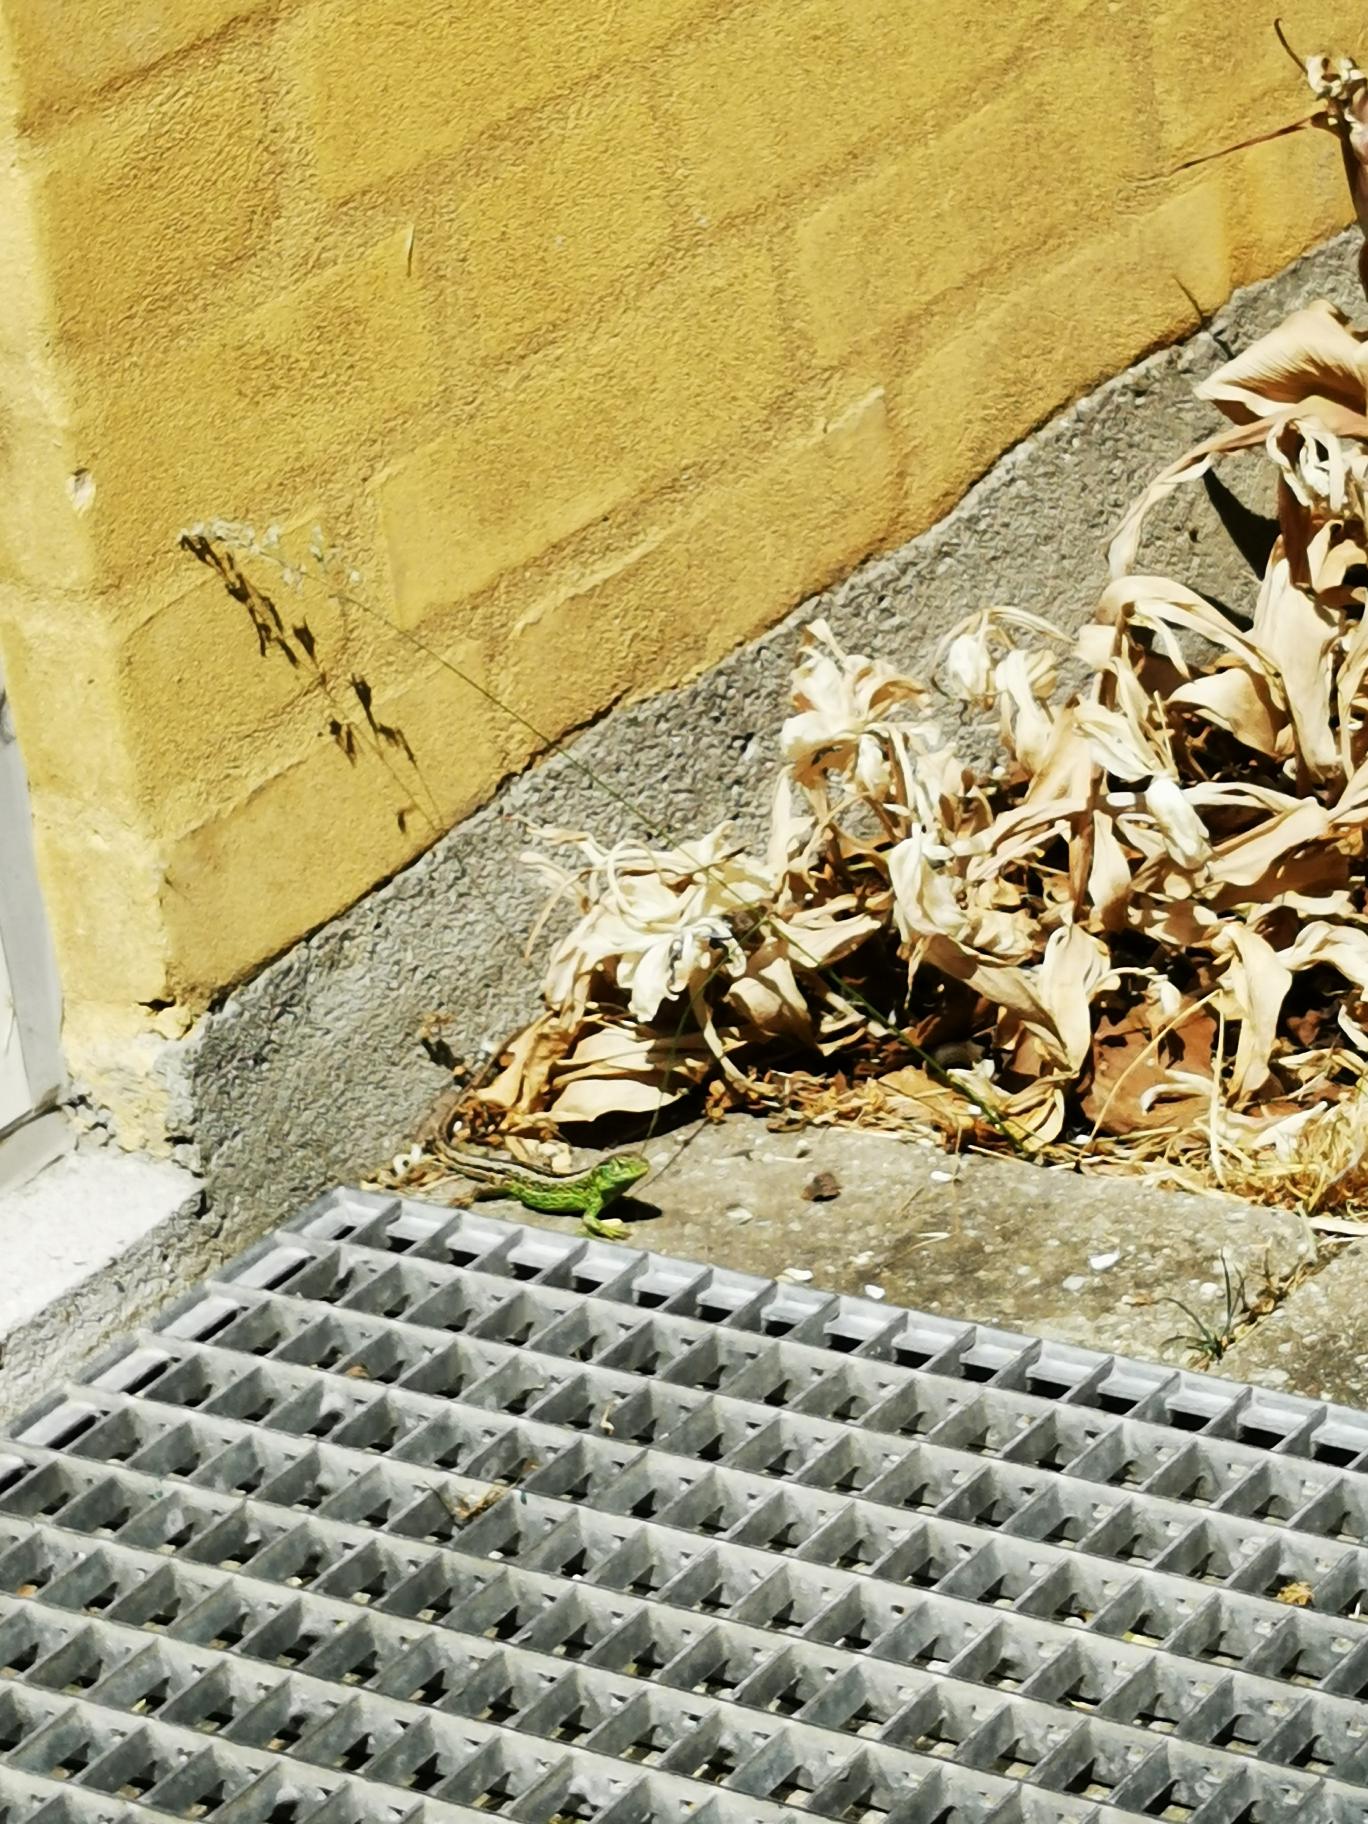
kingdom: Animalia
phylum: Chordata
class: Squamata
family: Lacertidae
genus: Lacerta
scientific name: Lacerta agilis
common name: Markfirben
